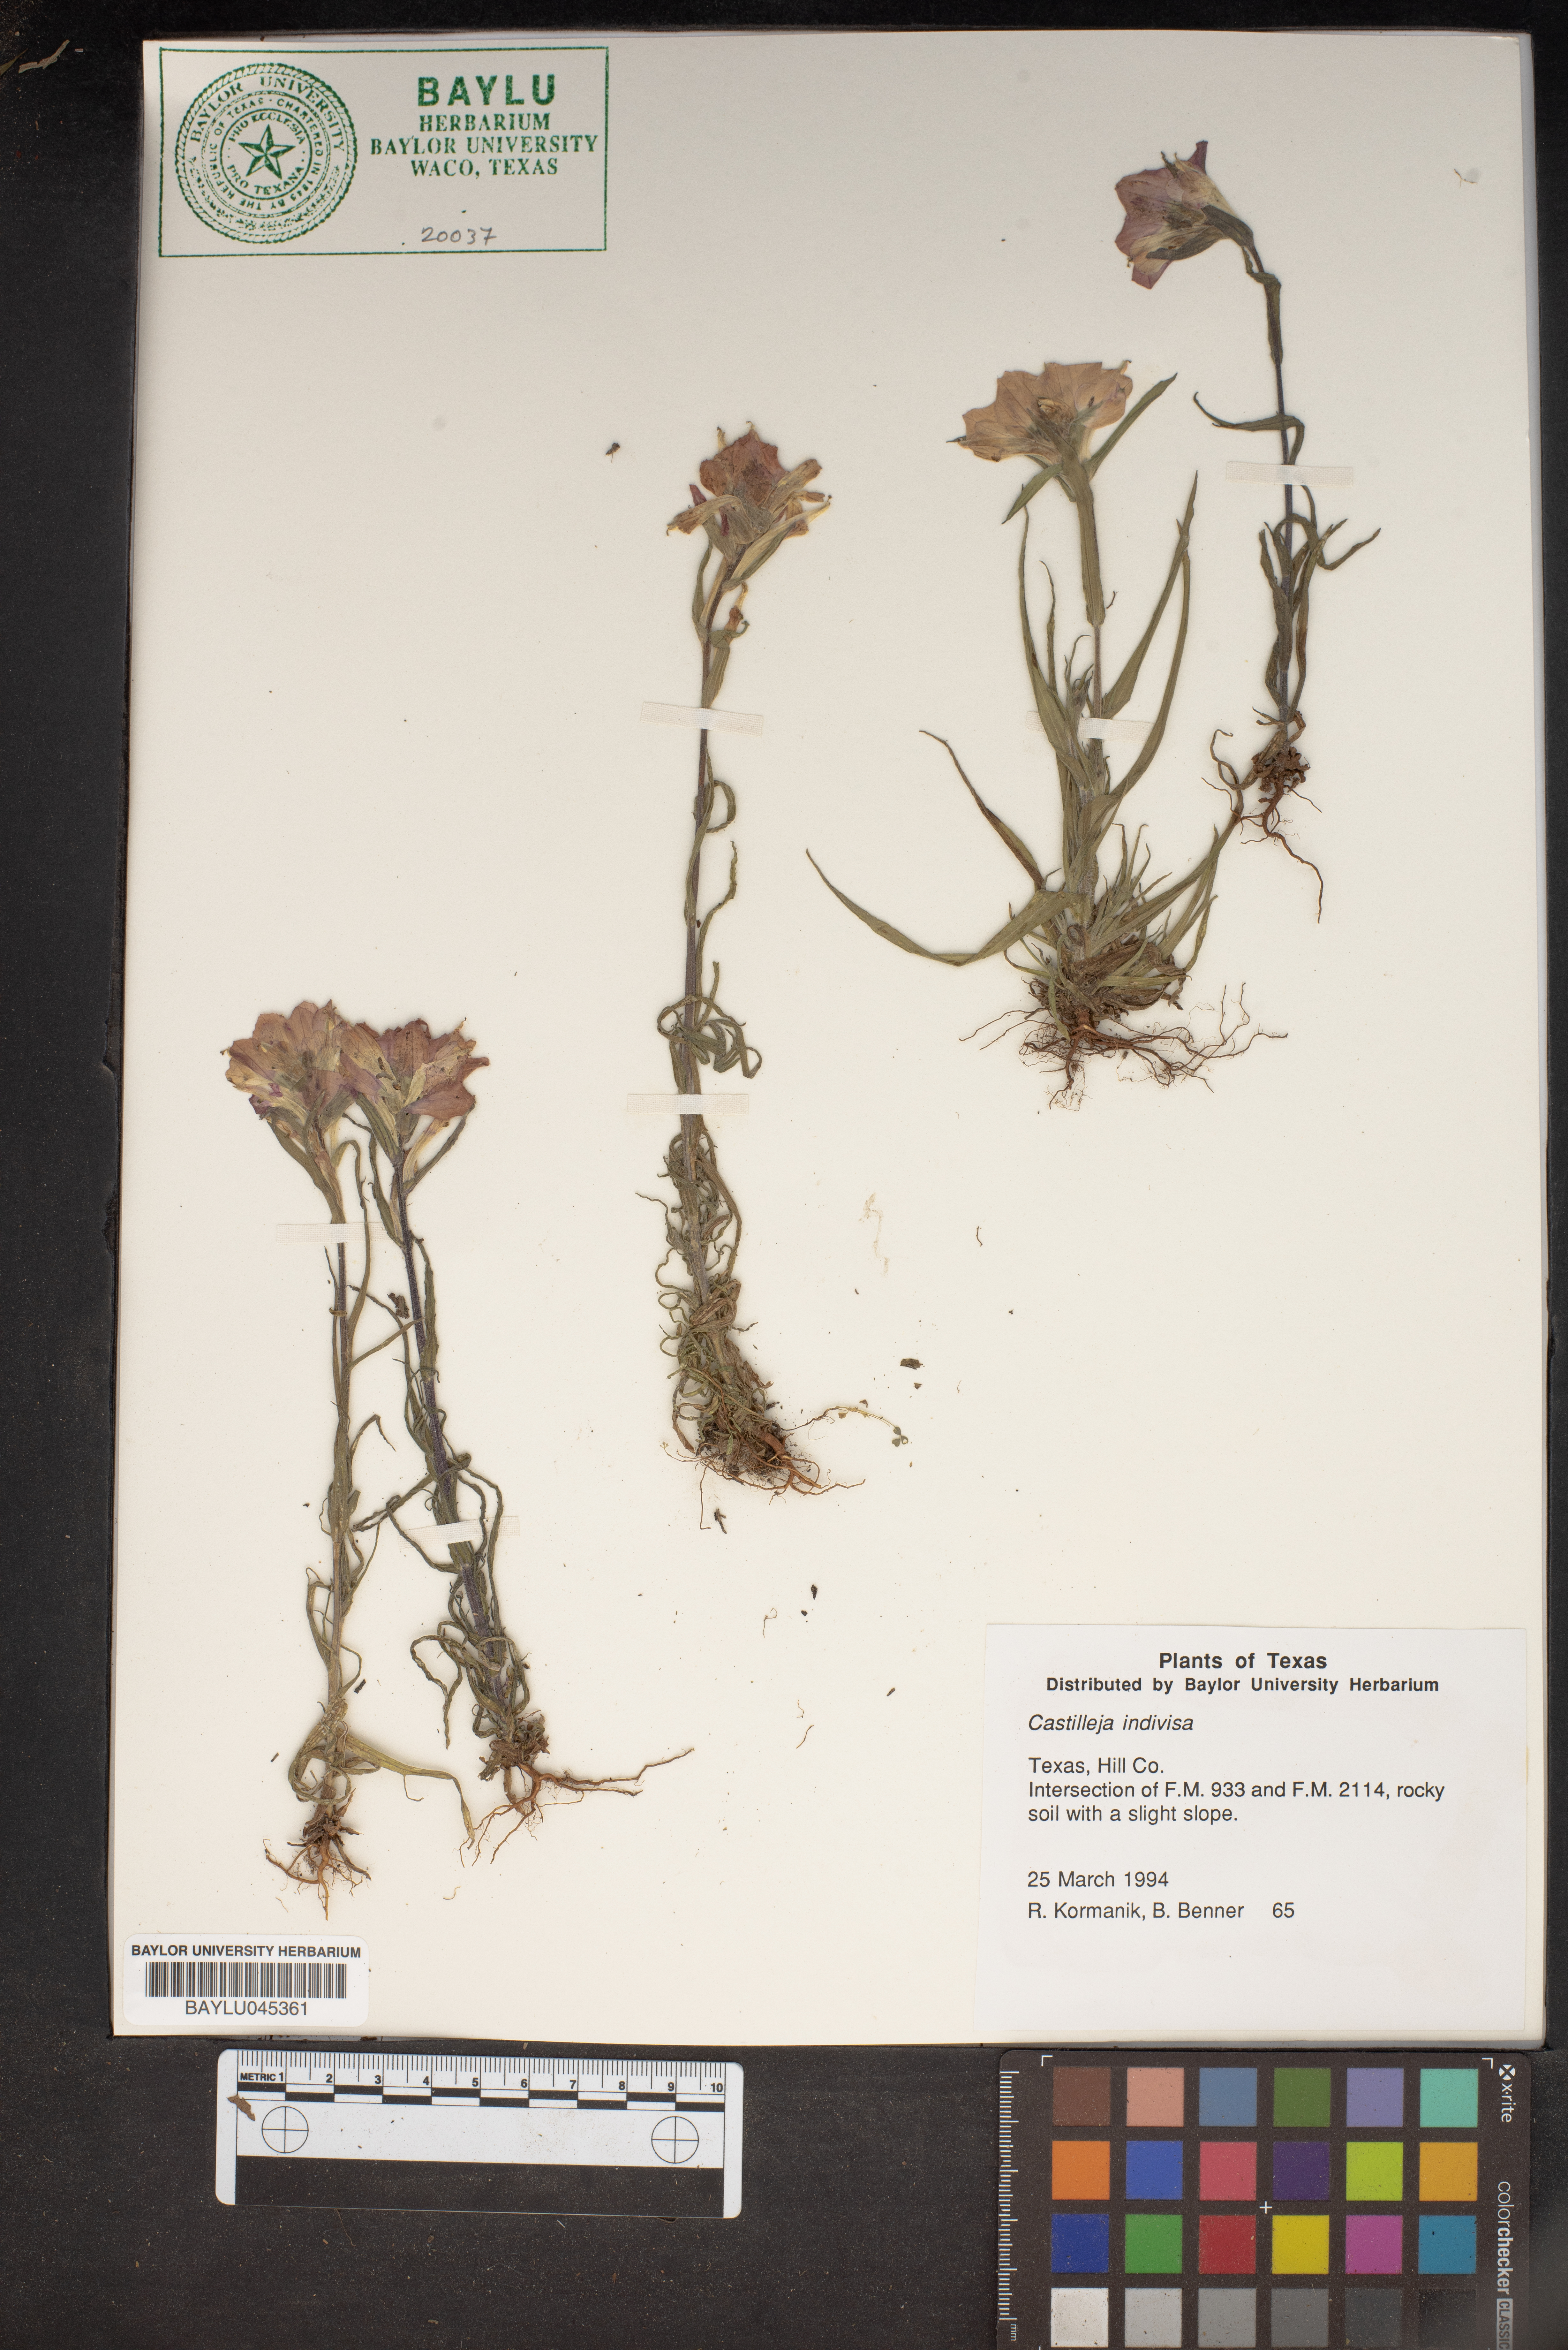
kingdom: Plantae
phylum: Tracheophyta
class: Magnoliopsida
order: Lamiales
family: Orobanchaceae
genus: Castilleja
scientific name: Castilleja indivisa
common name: Texas paintbrush
